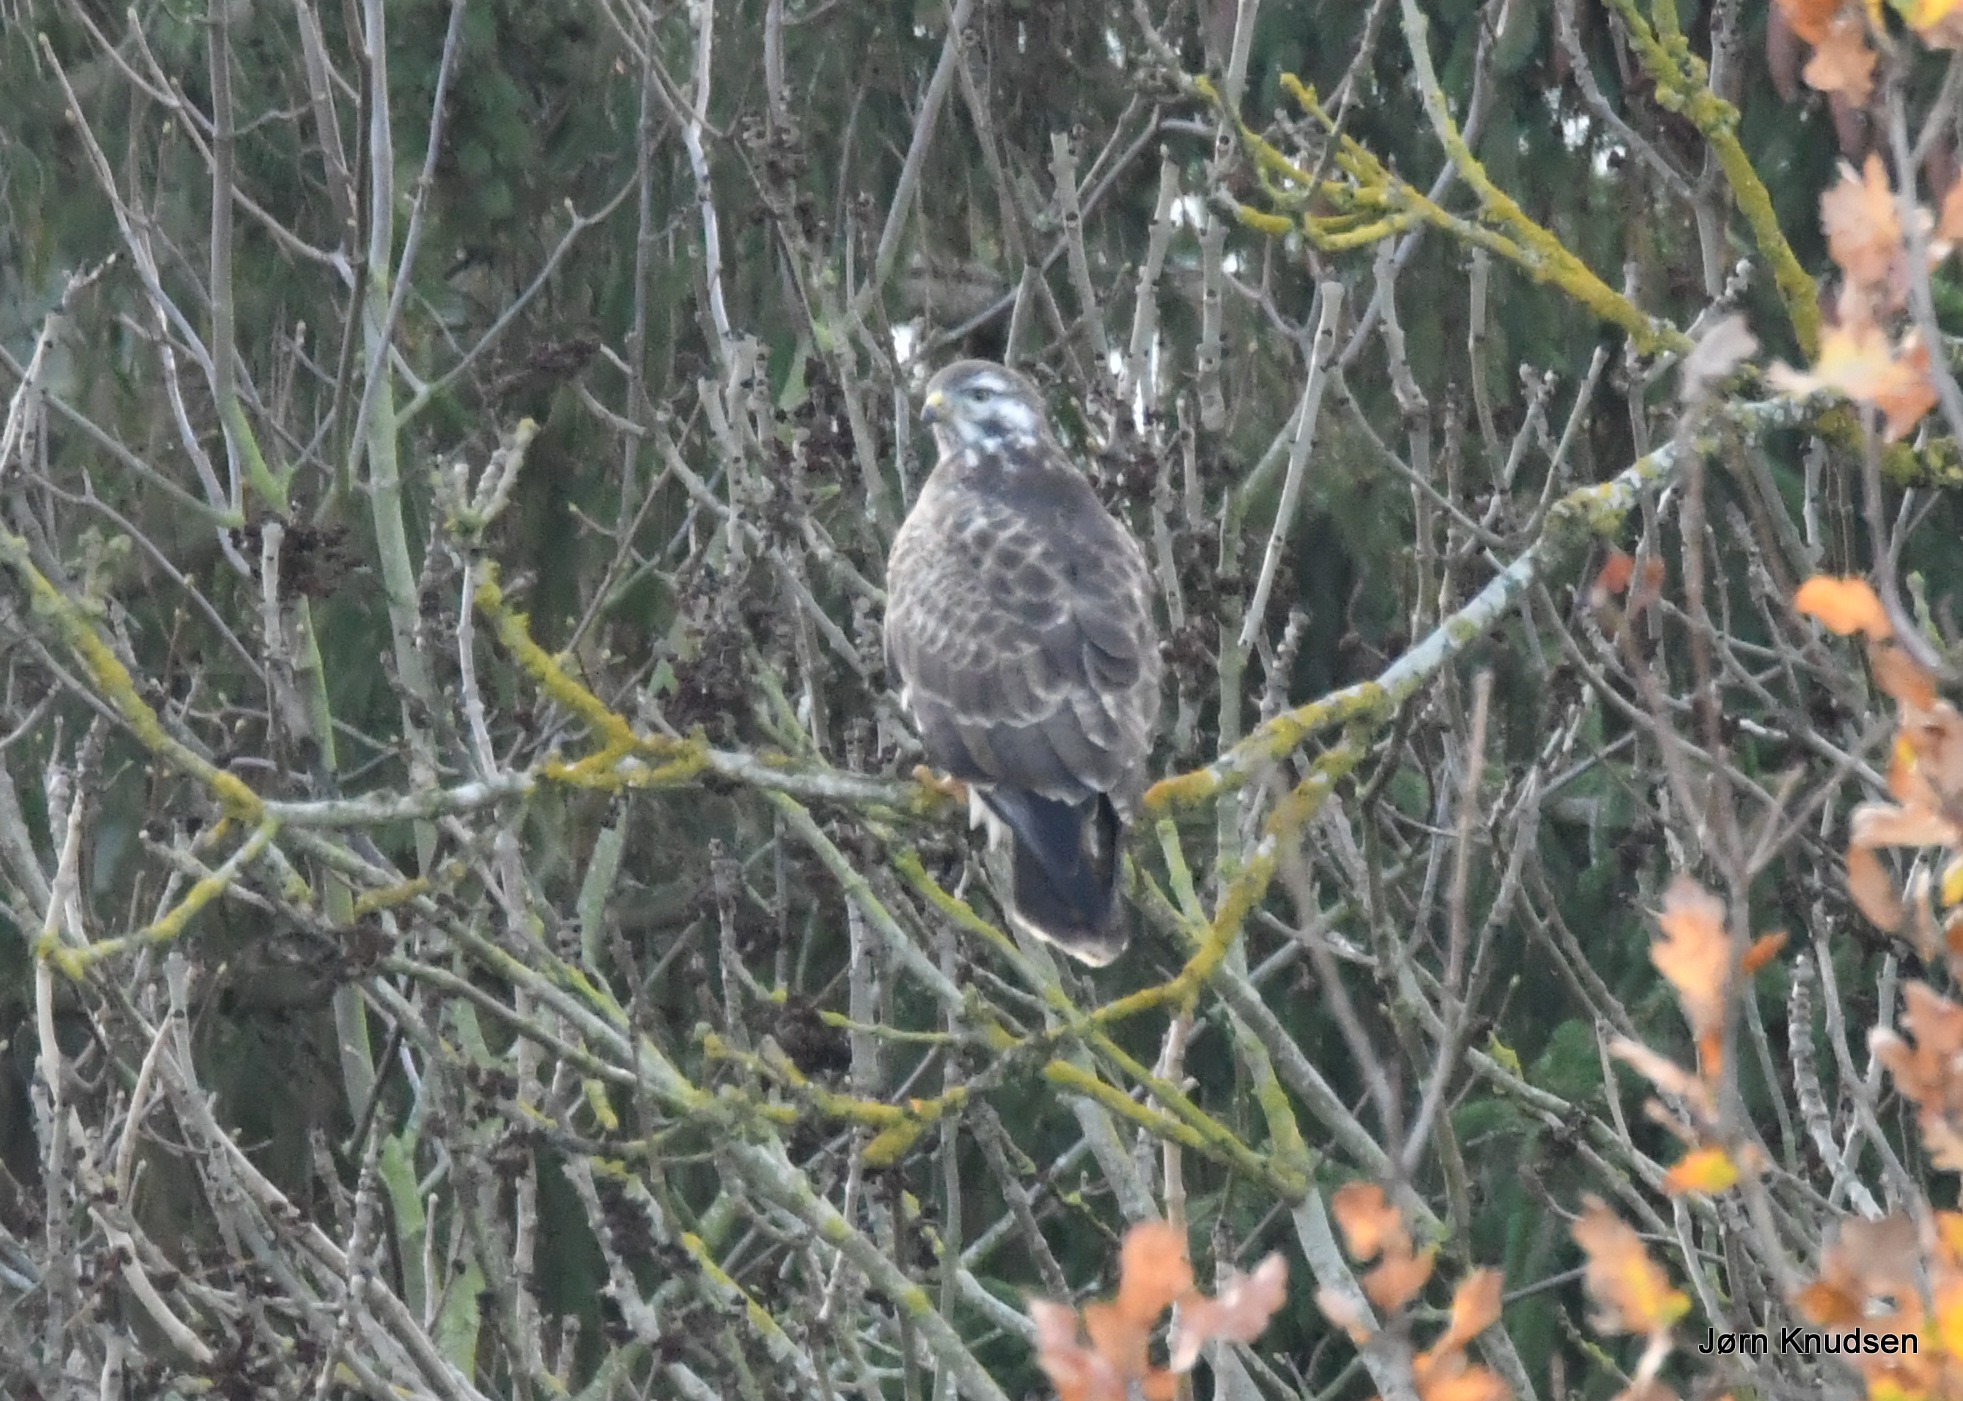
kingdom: Animalia
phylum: Chordata
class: Aves
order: Accipitriformes
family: Accipitridae
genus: Buteo
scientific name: Buteo buteo
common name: Musvåge
